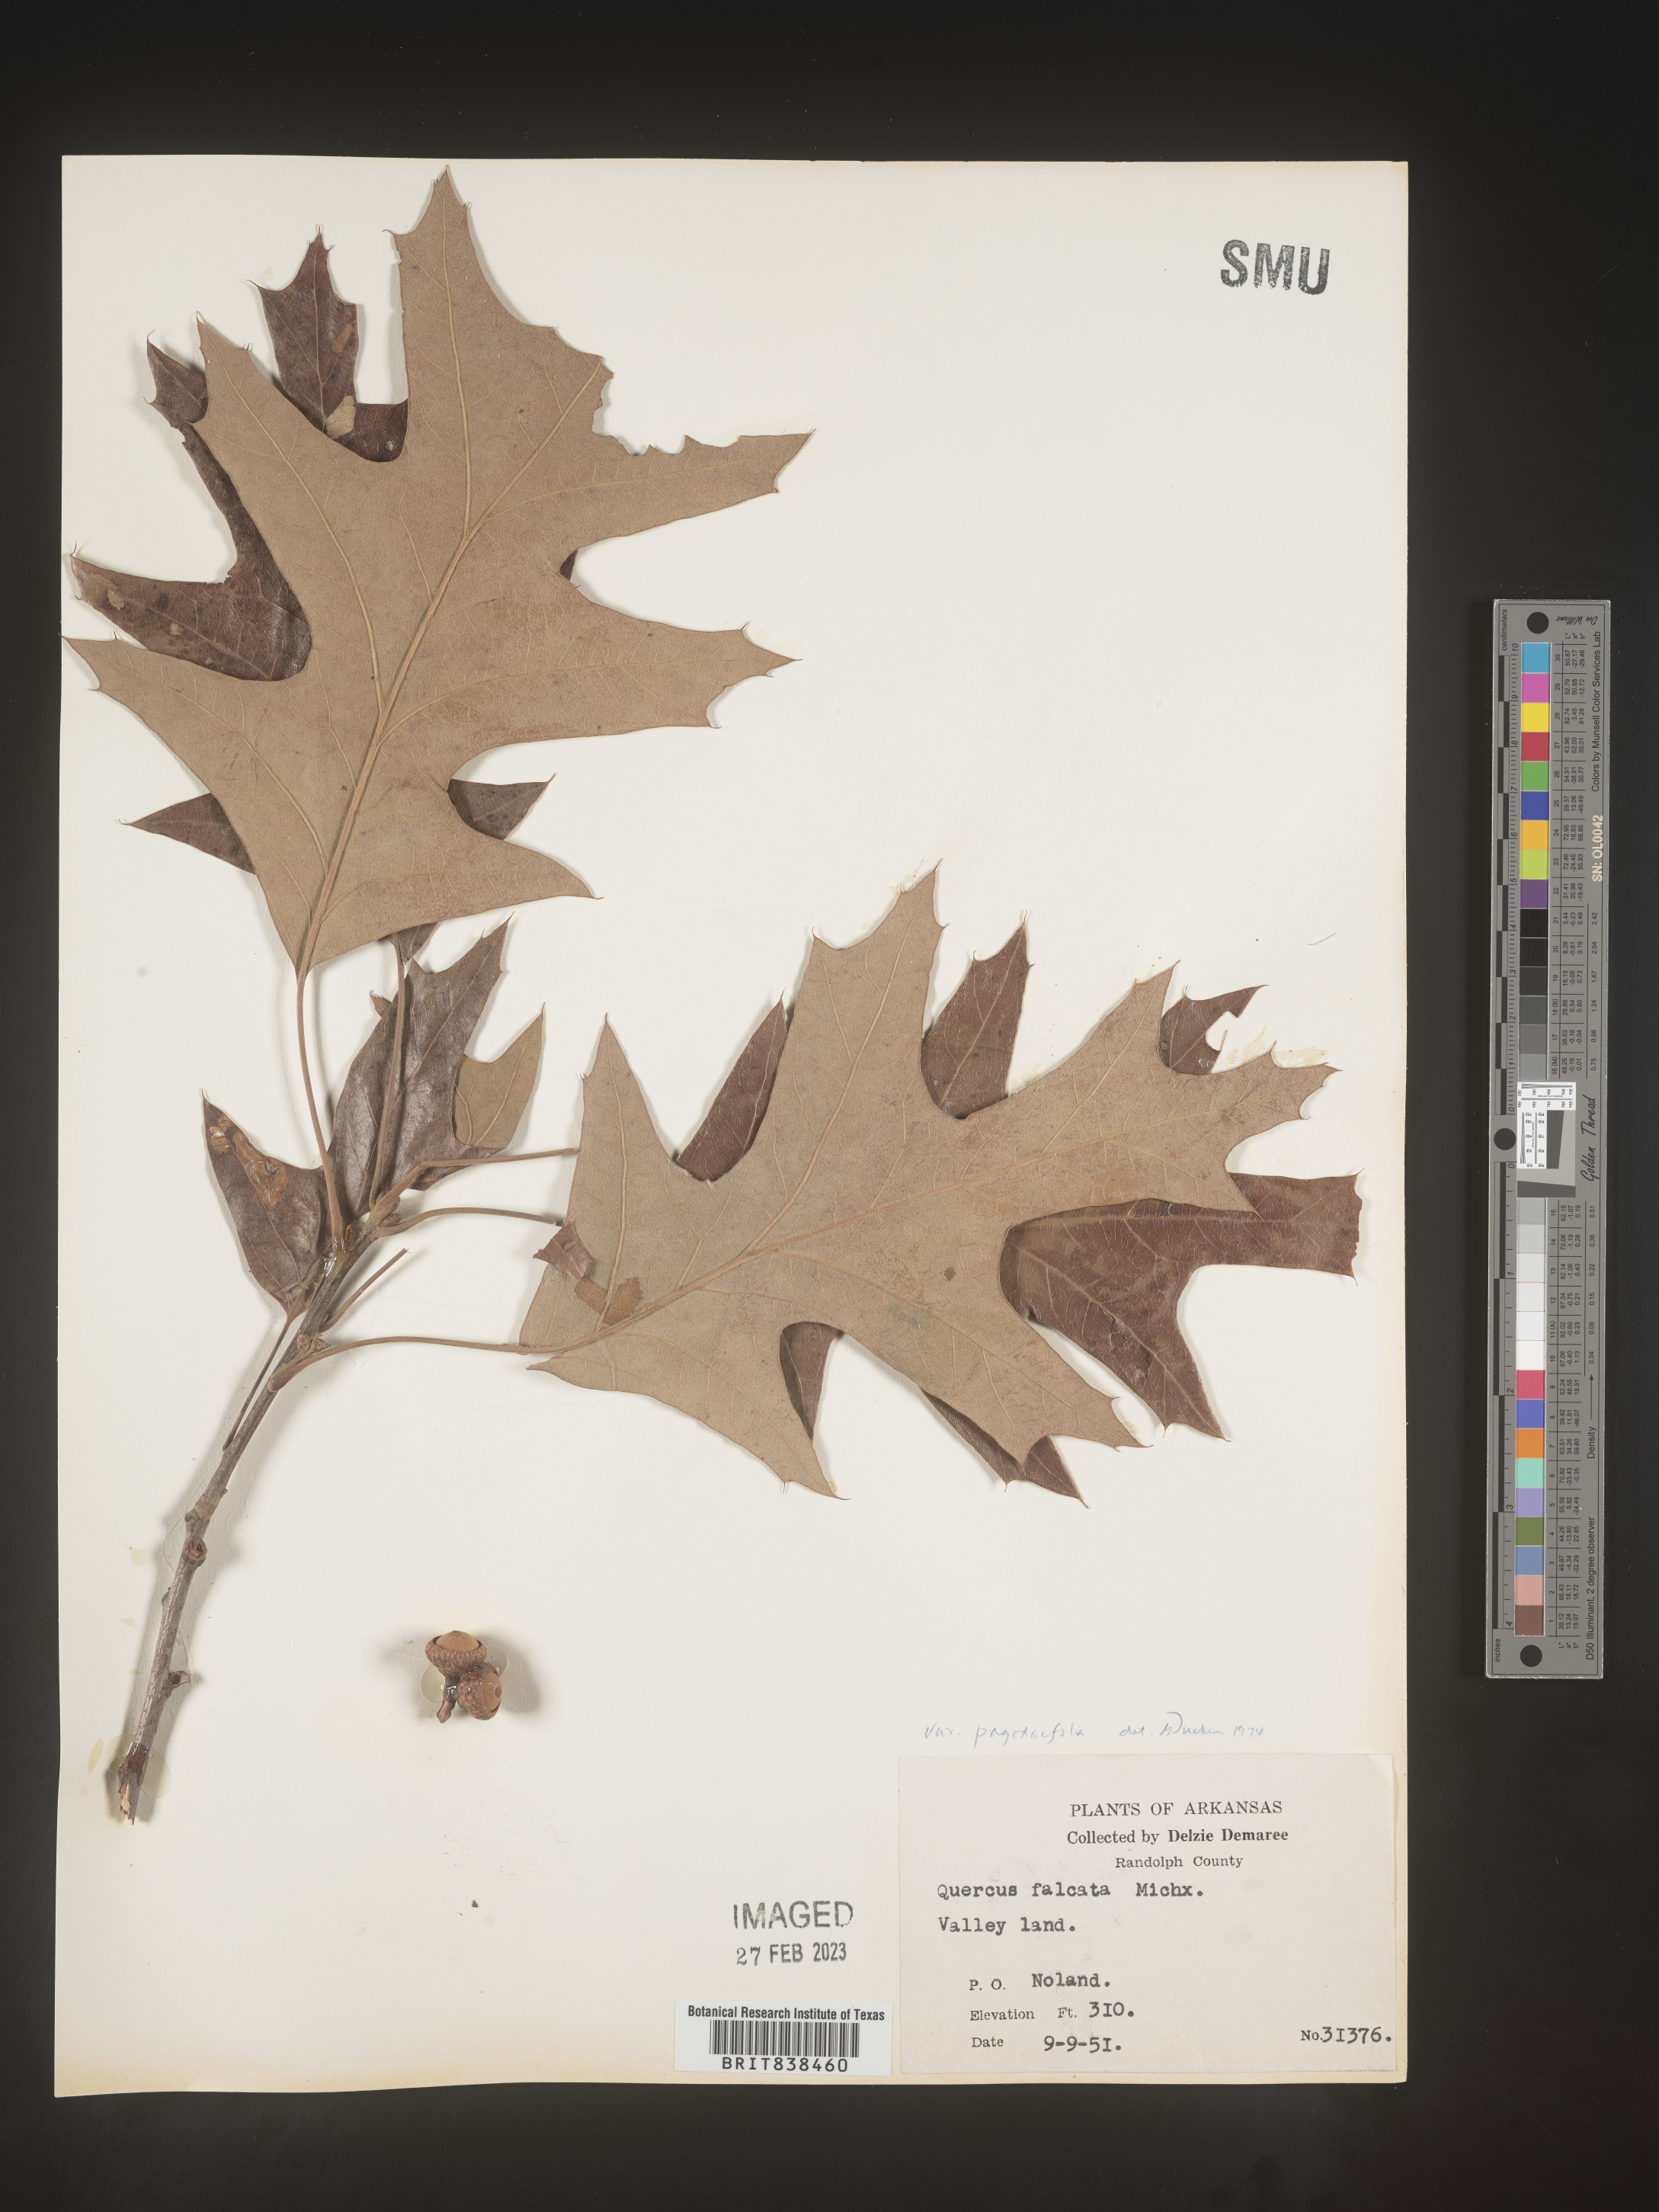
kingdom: Plantae
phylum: Tracheophyta
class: Magnoliopsida
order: Fagales
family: Fagaceae
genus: Quercus
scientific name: Quercus falcata
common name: Southern red oak
